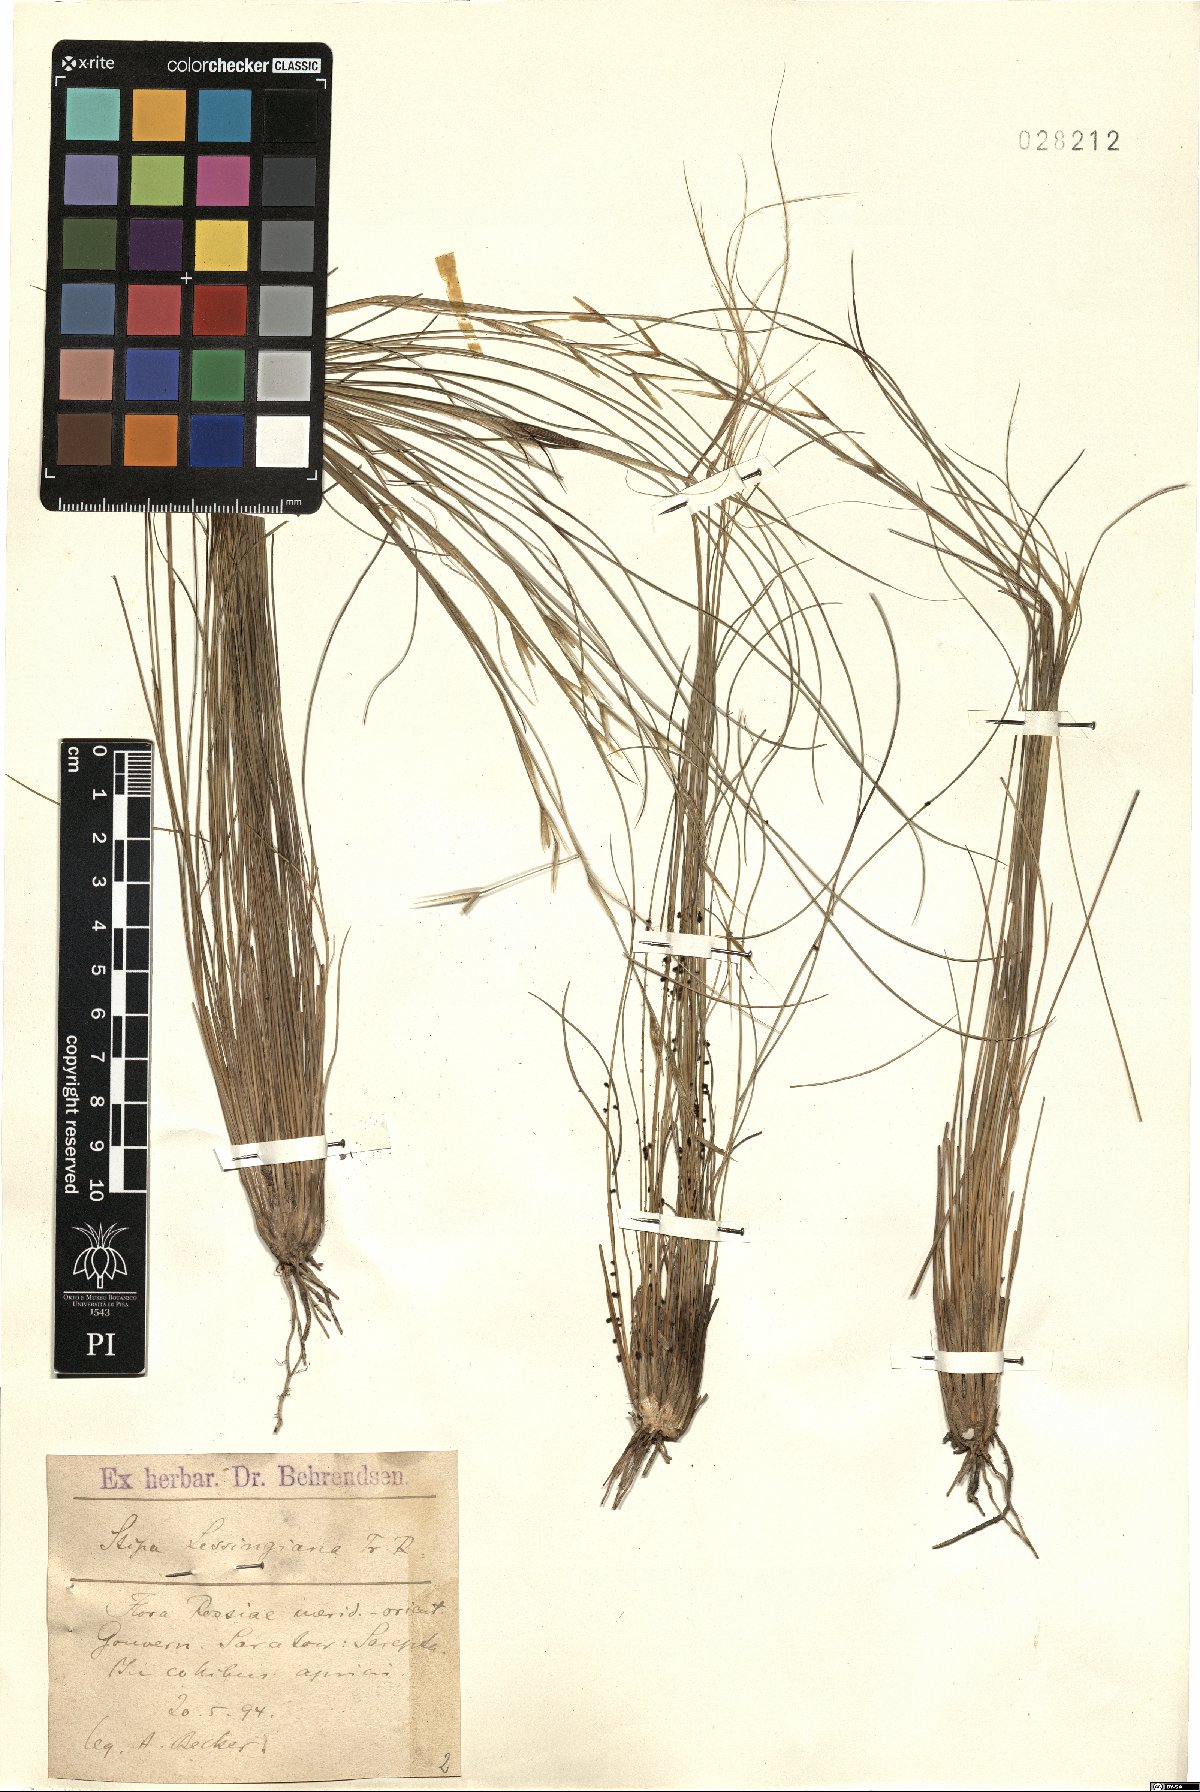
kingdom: Plantae
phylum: Tracheophyta
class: Liliopsida
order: Poales
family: Poaceae
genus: Stipa
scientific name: Stipa lessingiana
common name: Needle grass
